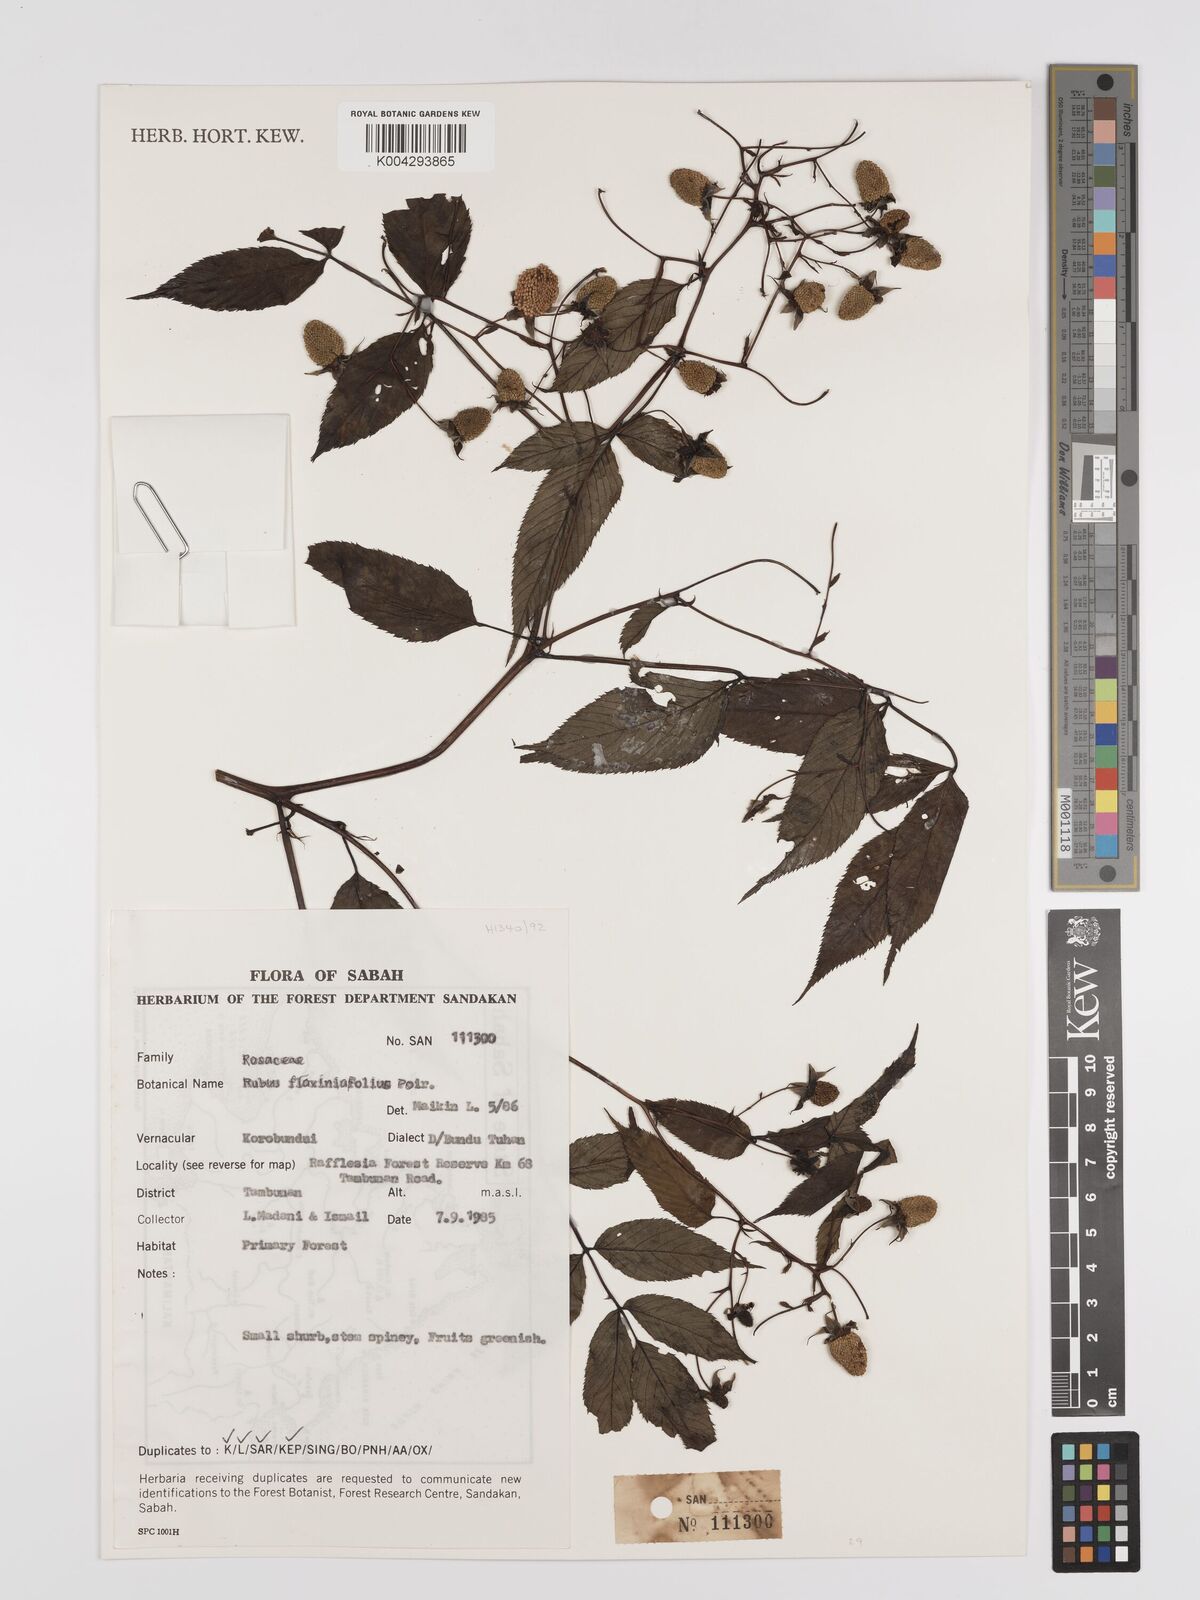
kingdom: Plantae
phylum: Tracheophyta
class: Magnoliopsida
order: Rosales
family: Rosaceae
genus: Rubus
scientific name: Rubus fraxinifolius
